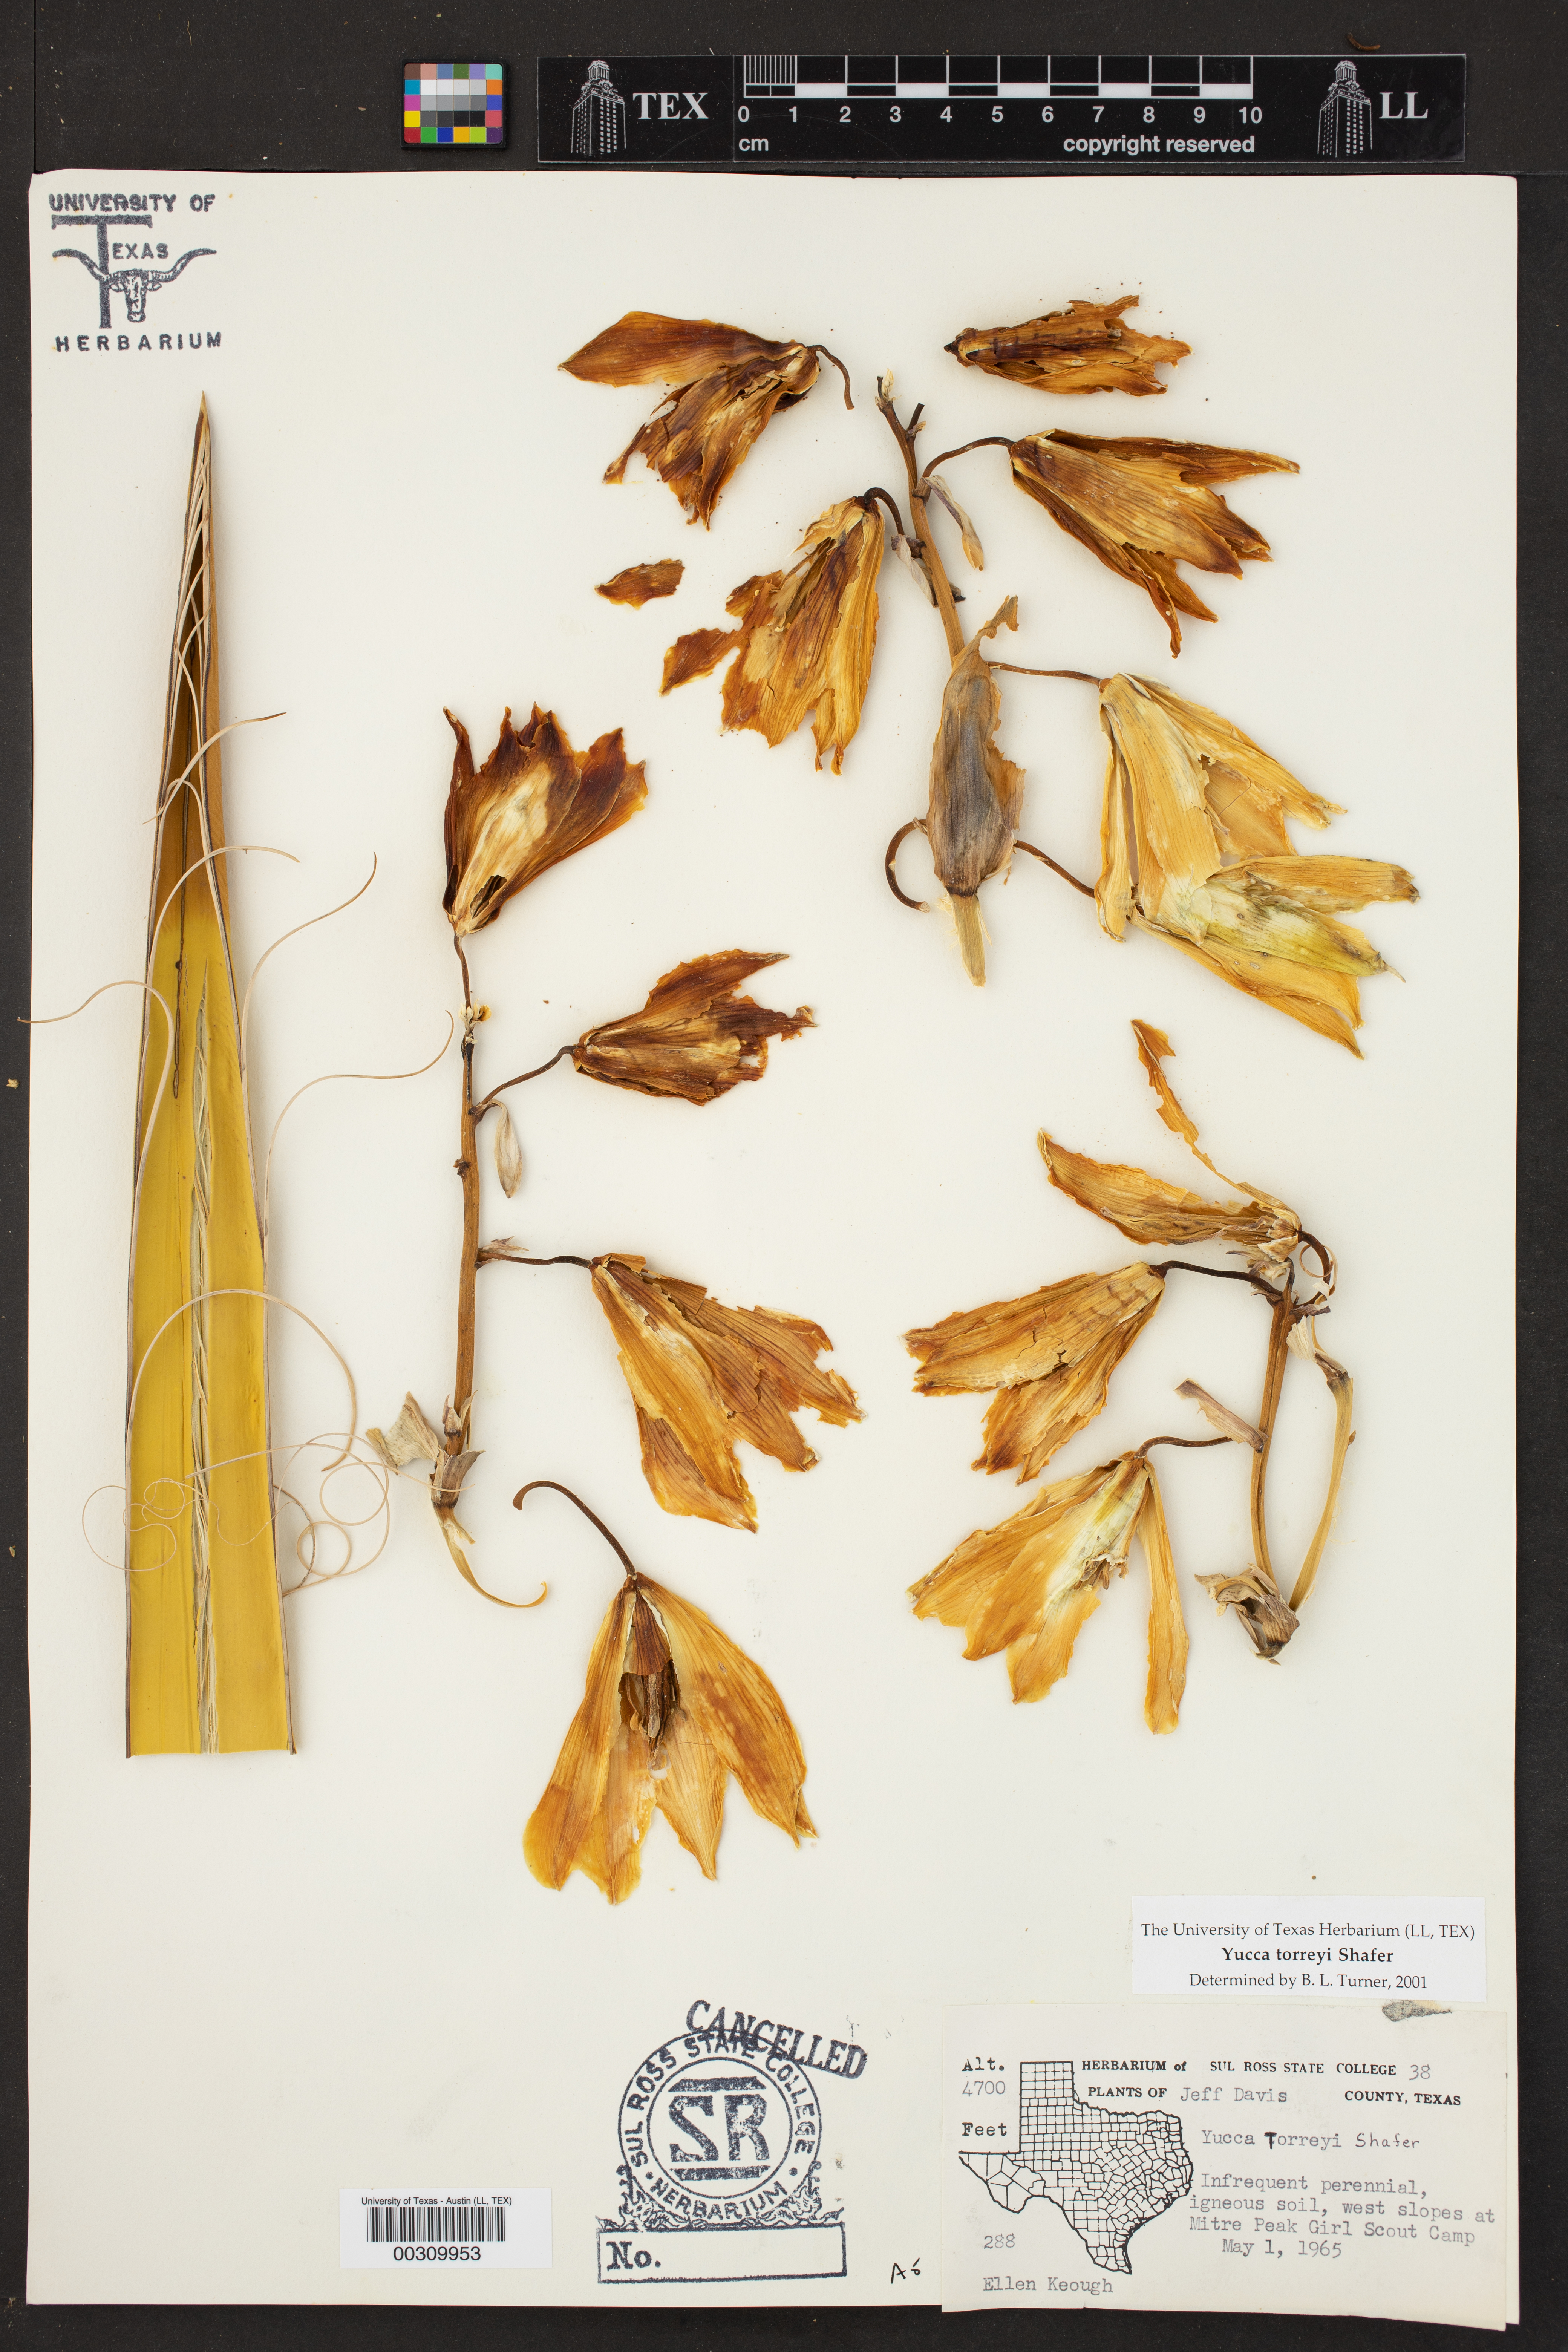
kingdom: Plantae
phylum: Tracheophyta
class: Liliopsida
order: Asparagales
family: Asparagaceae
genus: Yucca
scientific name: Yucca treculiana
